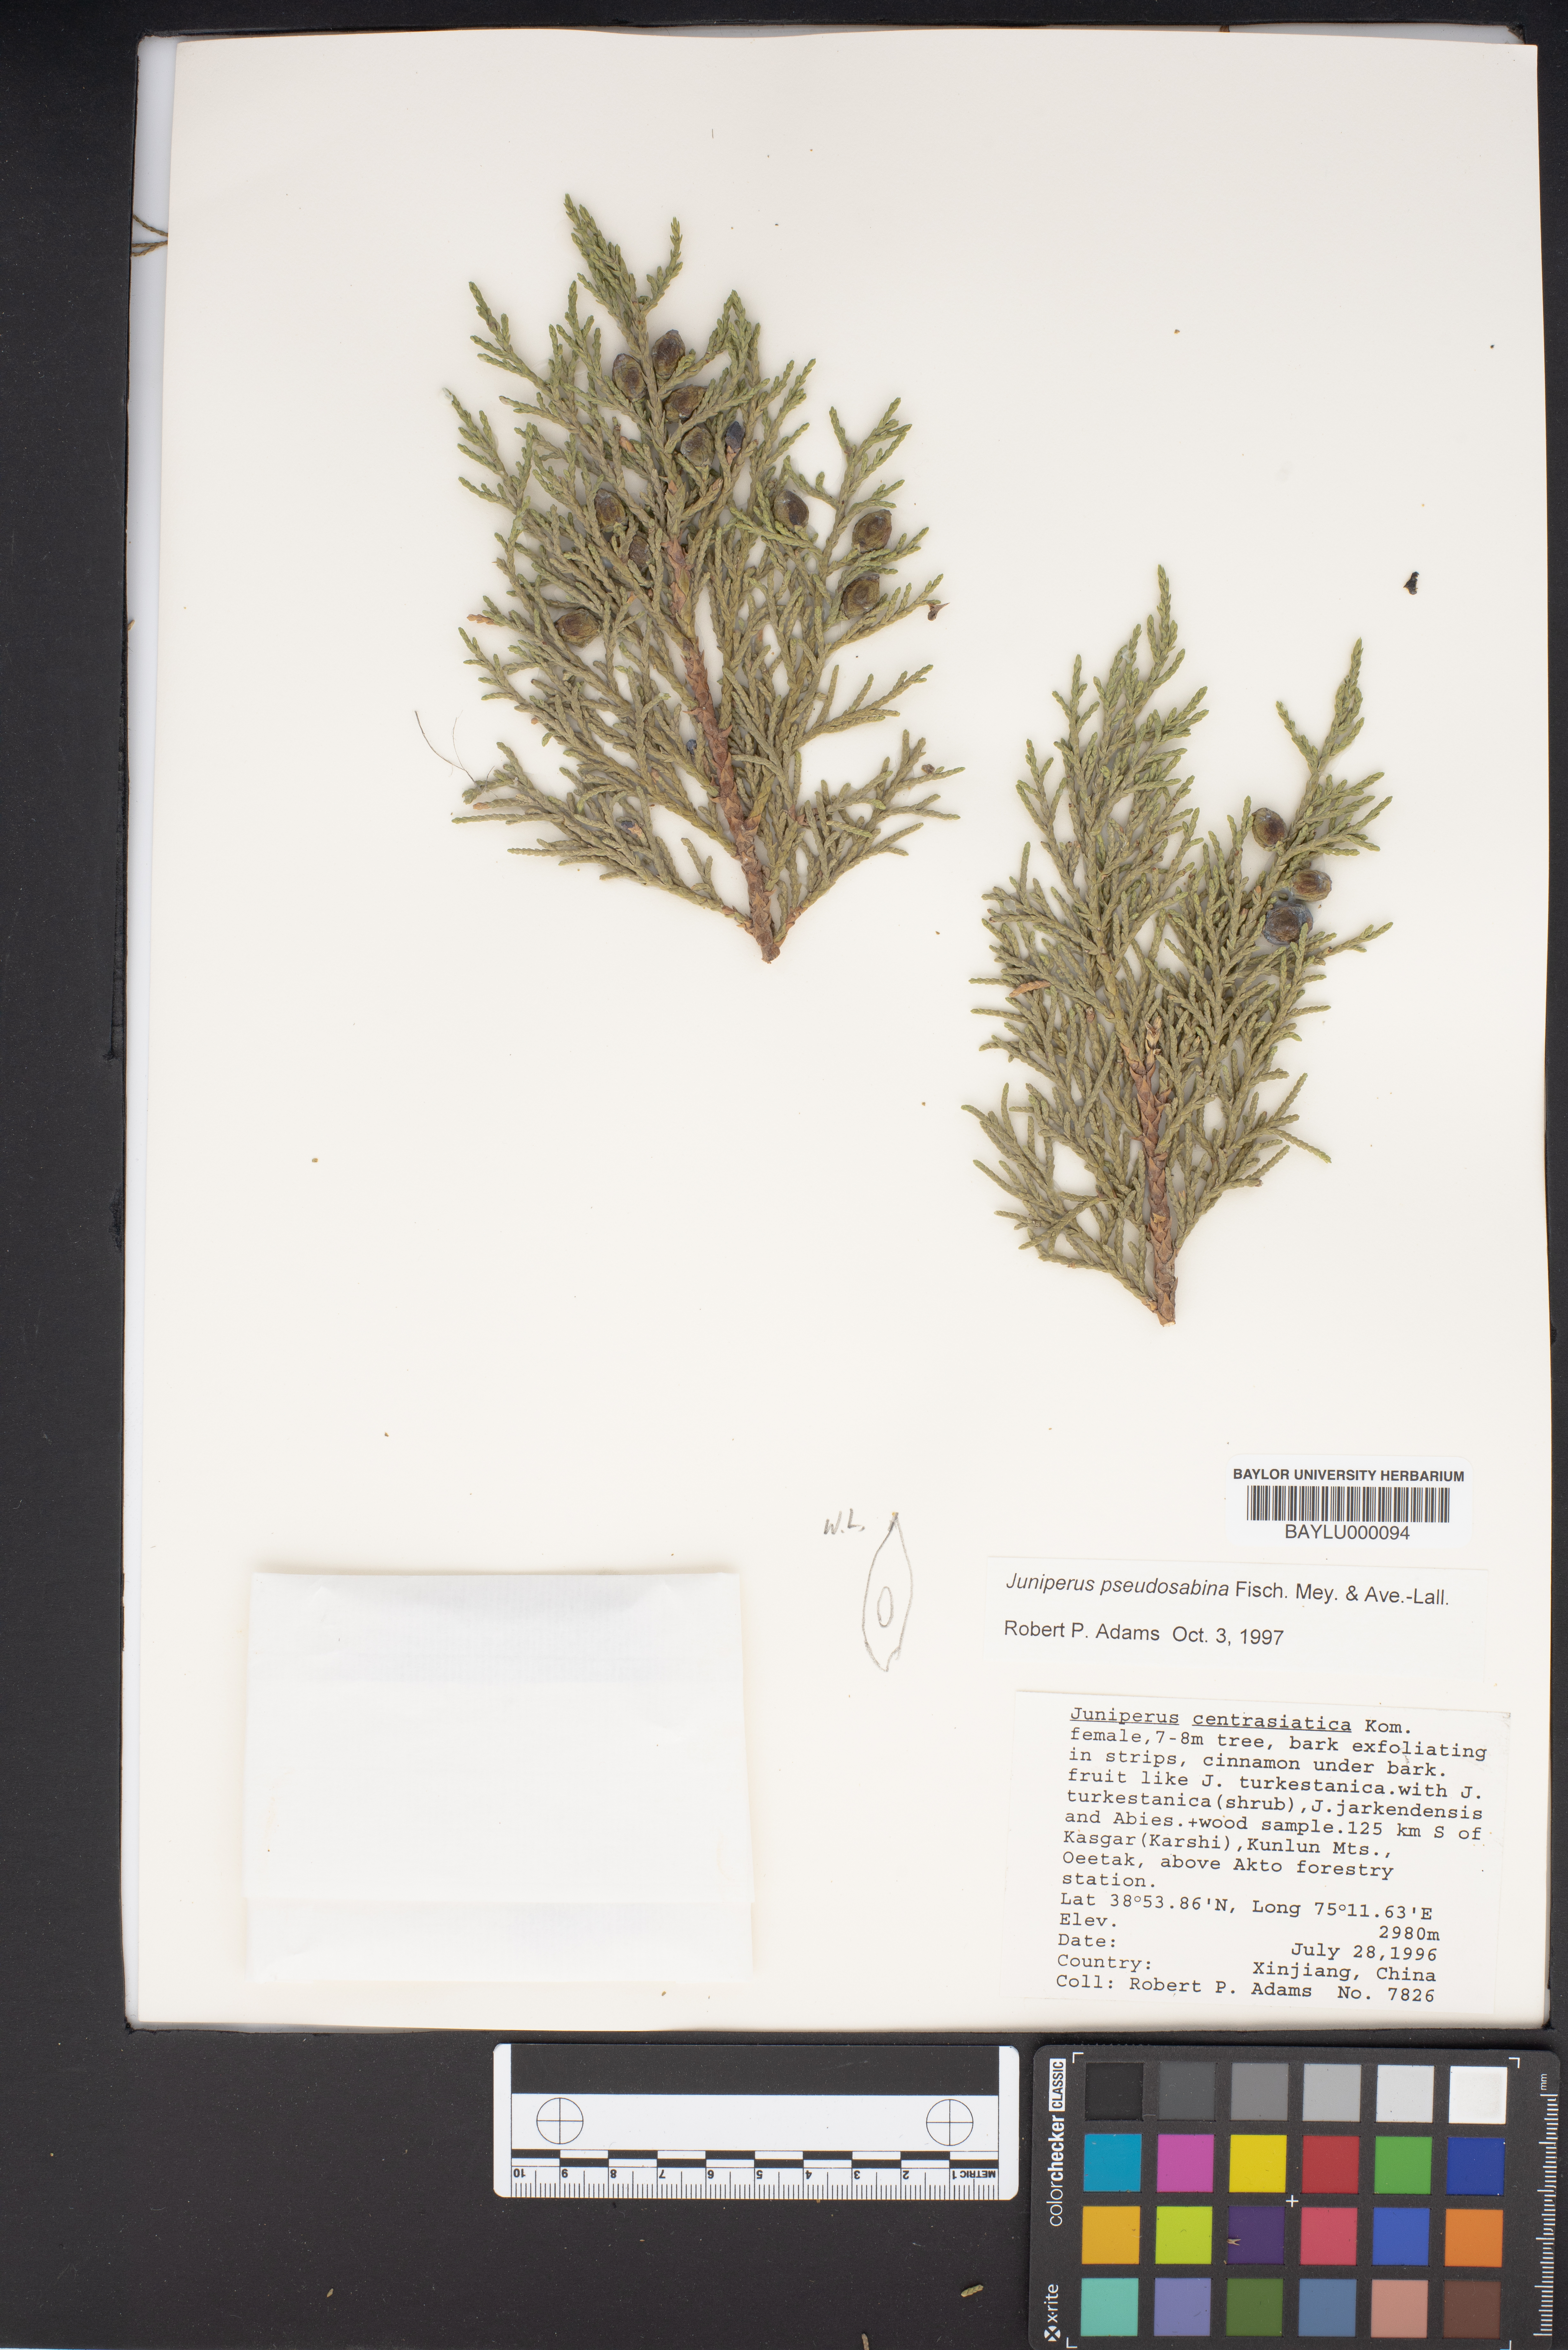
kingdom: Plantae
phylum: Tracheophyta
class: Pinopsida
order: Pinales
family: Cupressaceae
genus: Juniperus
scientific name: Juniperus pseudosabina
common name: Turkestan juniper
